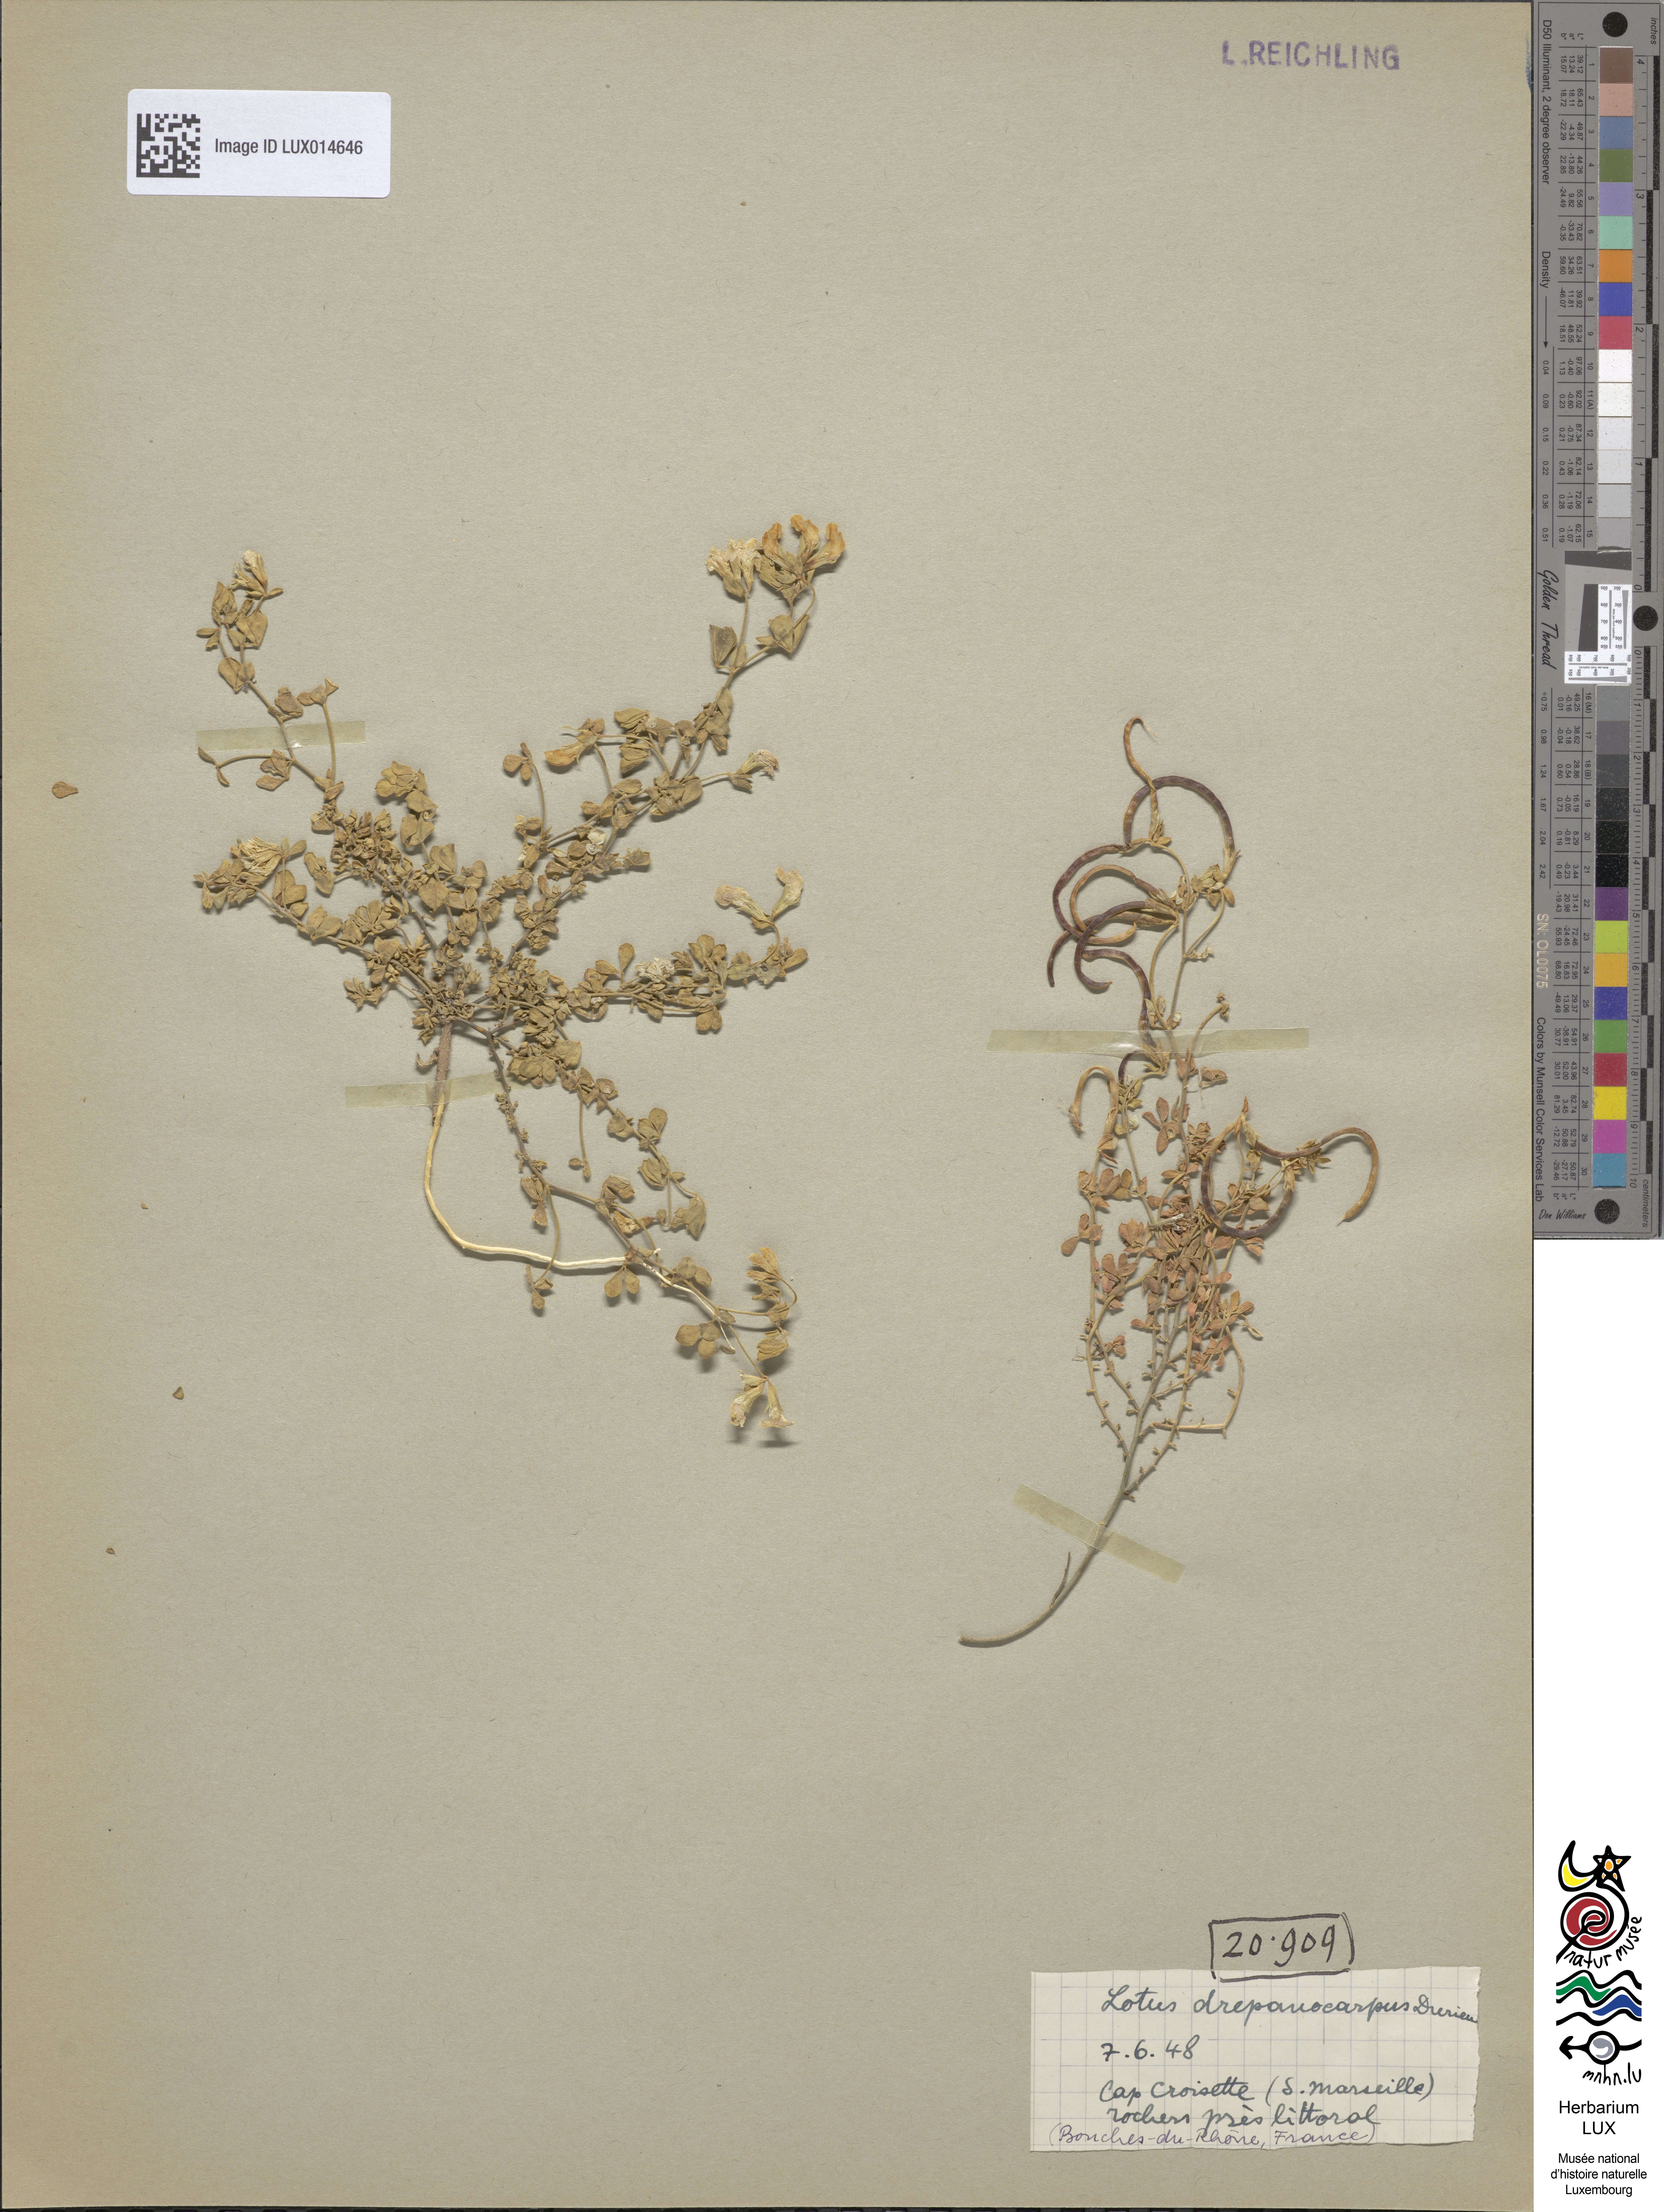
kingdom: Plantae
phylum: Tracheophyta
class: Magnoliopsida
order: Fabales
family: Fabaceae
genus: Lotus
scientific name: Lotus drepanocarpus
